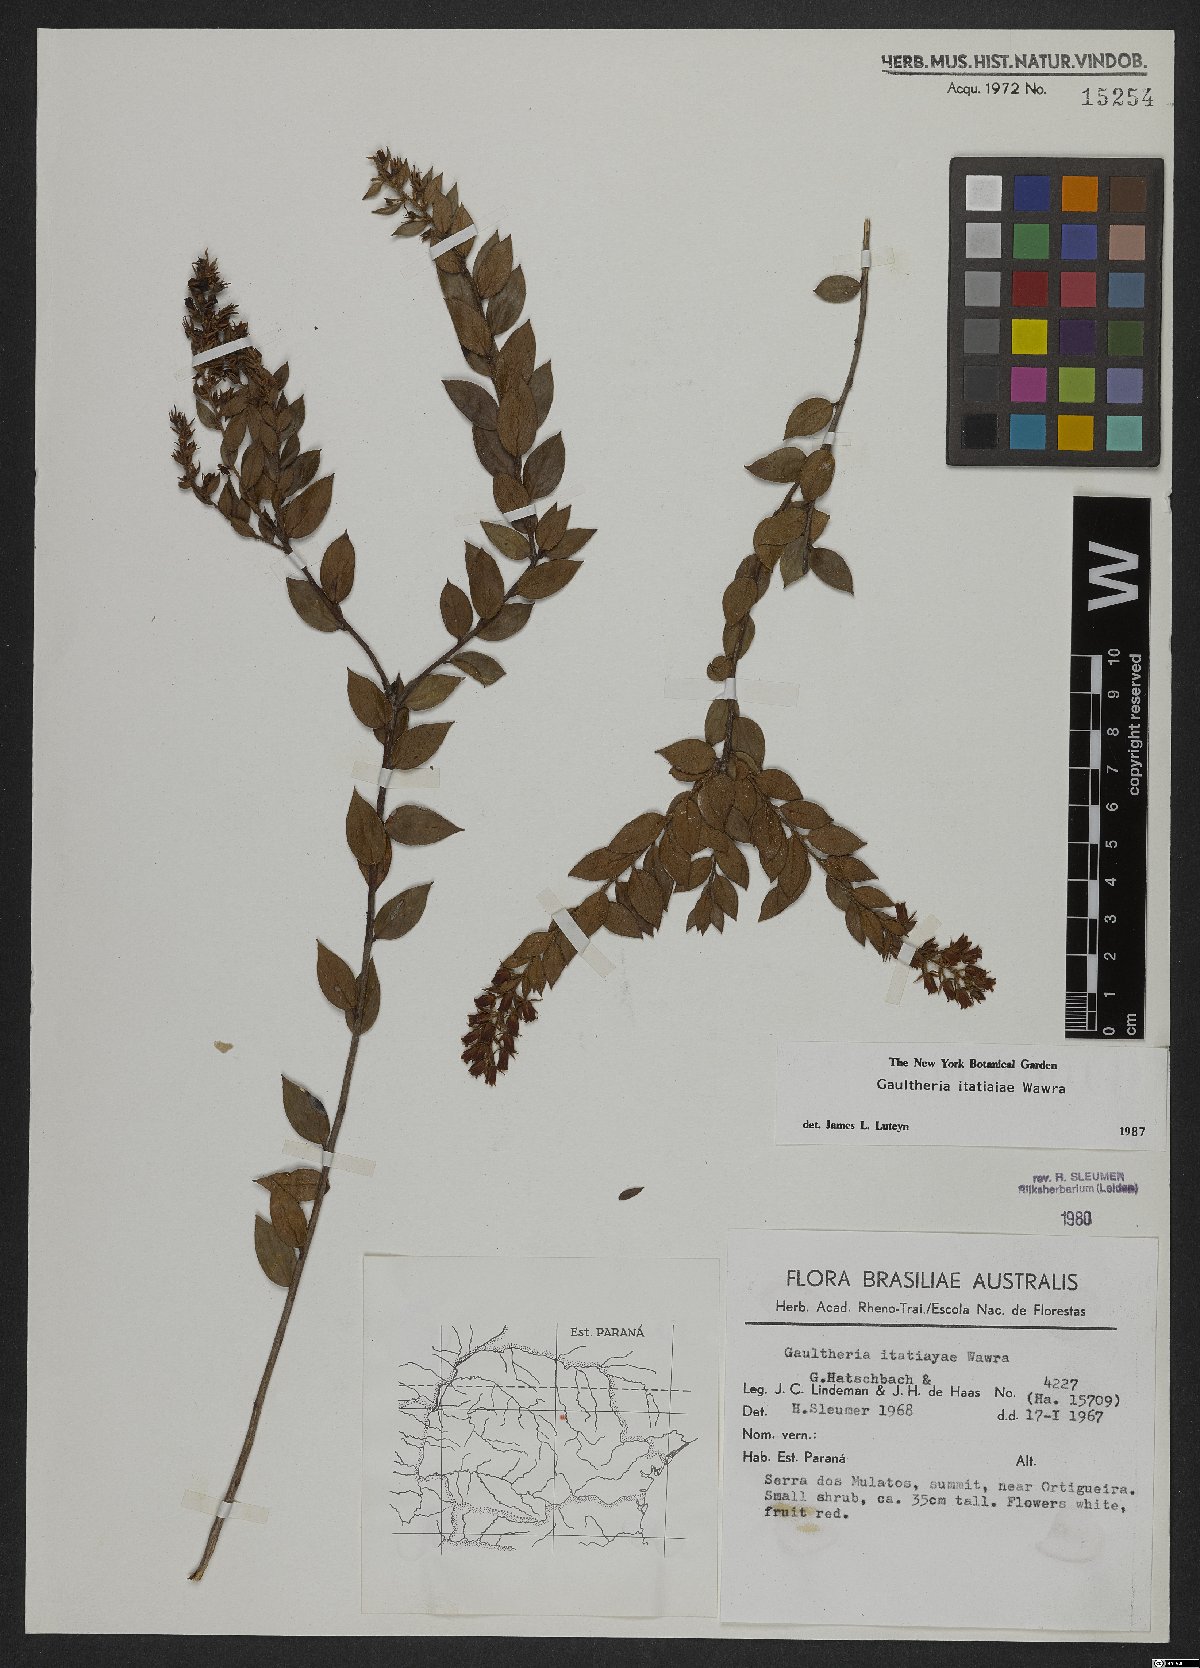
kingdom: Plantae
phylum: Tracheophyta
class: Magnoliopsida
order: Ericales
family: Ericaceae
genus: Gaultheria
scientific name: Gaultheria itatiaiae
